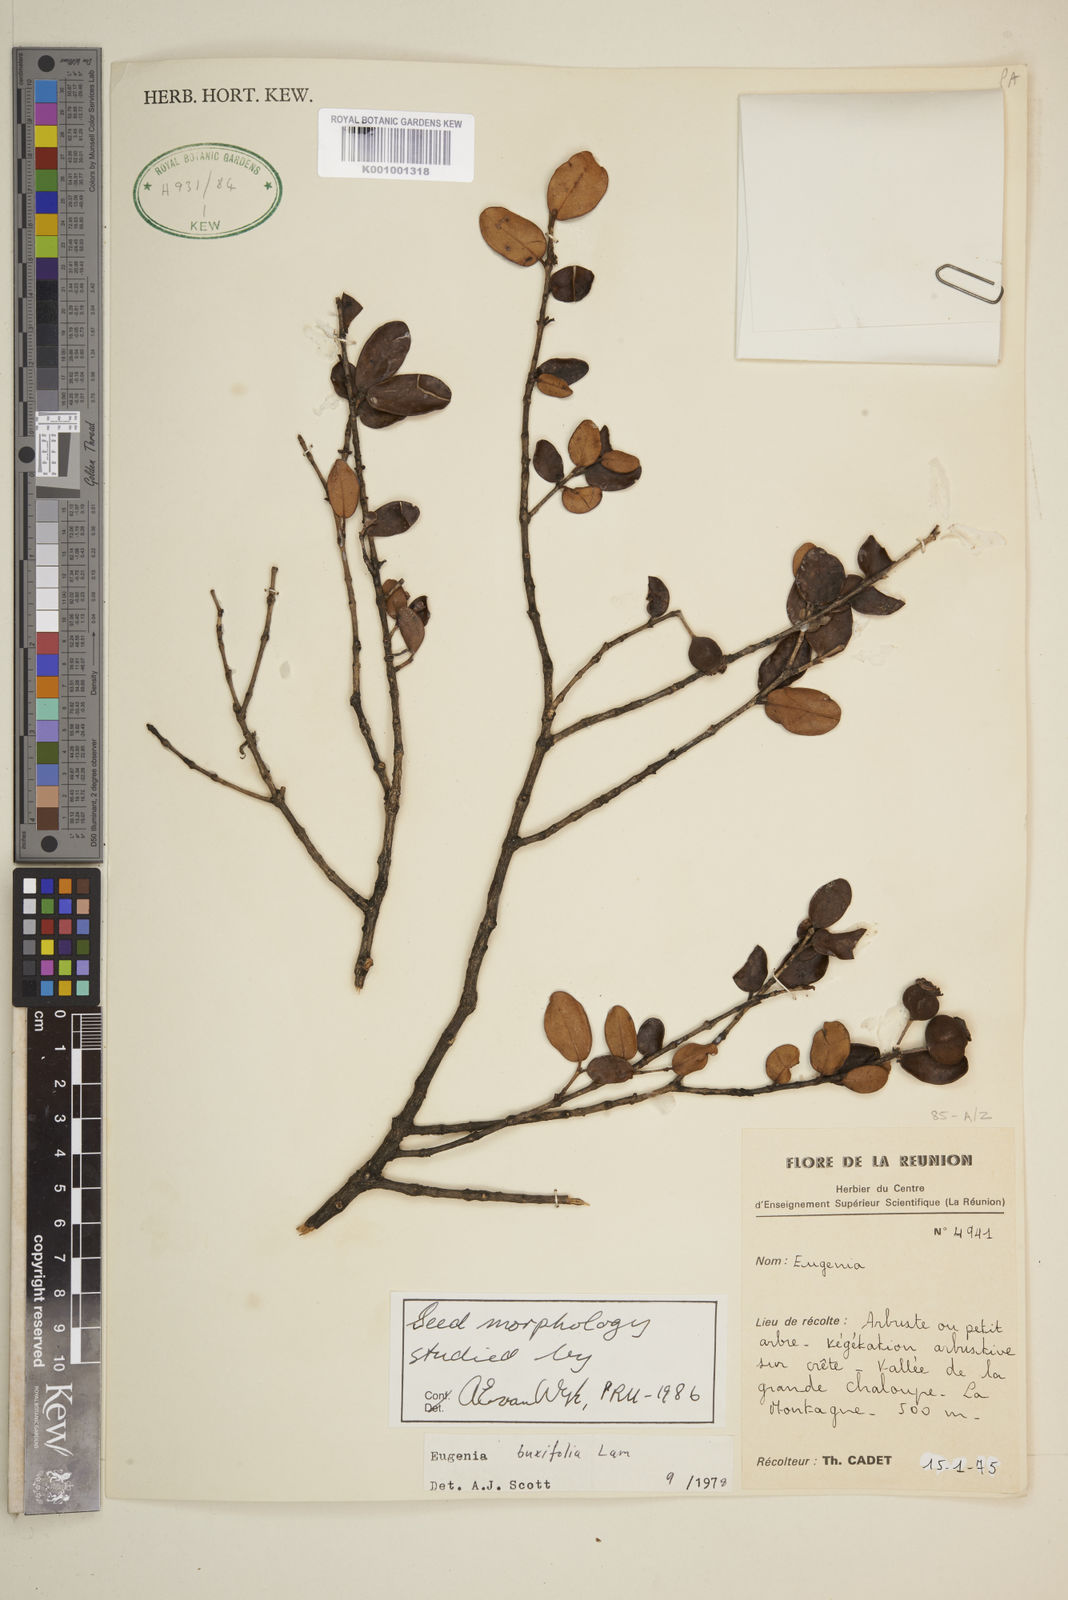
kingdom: Plantae
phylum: Tracheophyta
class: Magnoliopsida
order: Myrtales
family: Myrtaceae
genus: Eugenia
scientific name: Eugenia buxifolia
